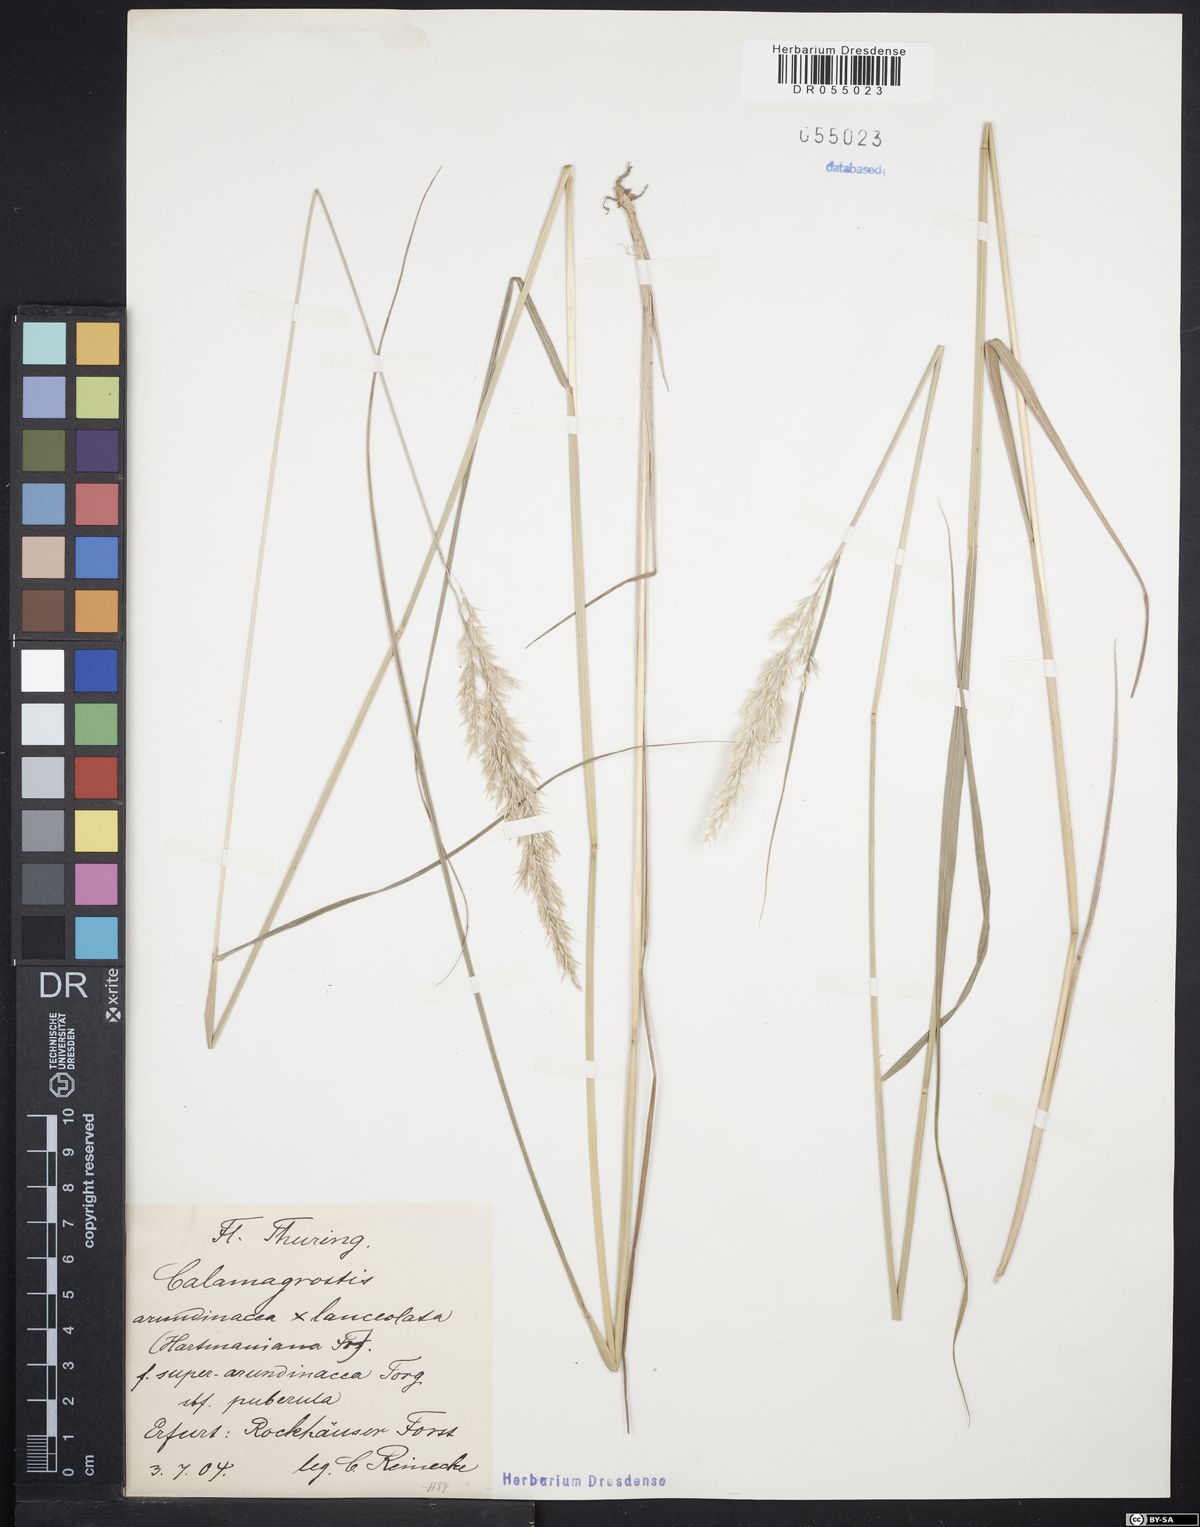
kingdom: Plantae
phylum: Tracheophyta
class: Liliopsida
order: Poales
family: Poaceae
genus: Calamagrostis
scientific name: Calamagrostis hartmaniana
